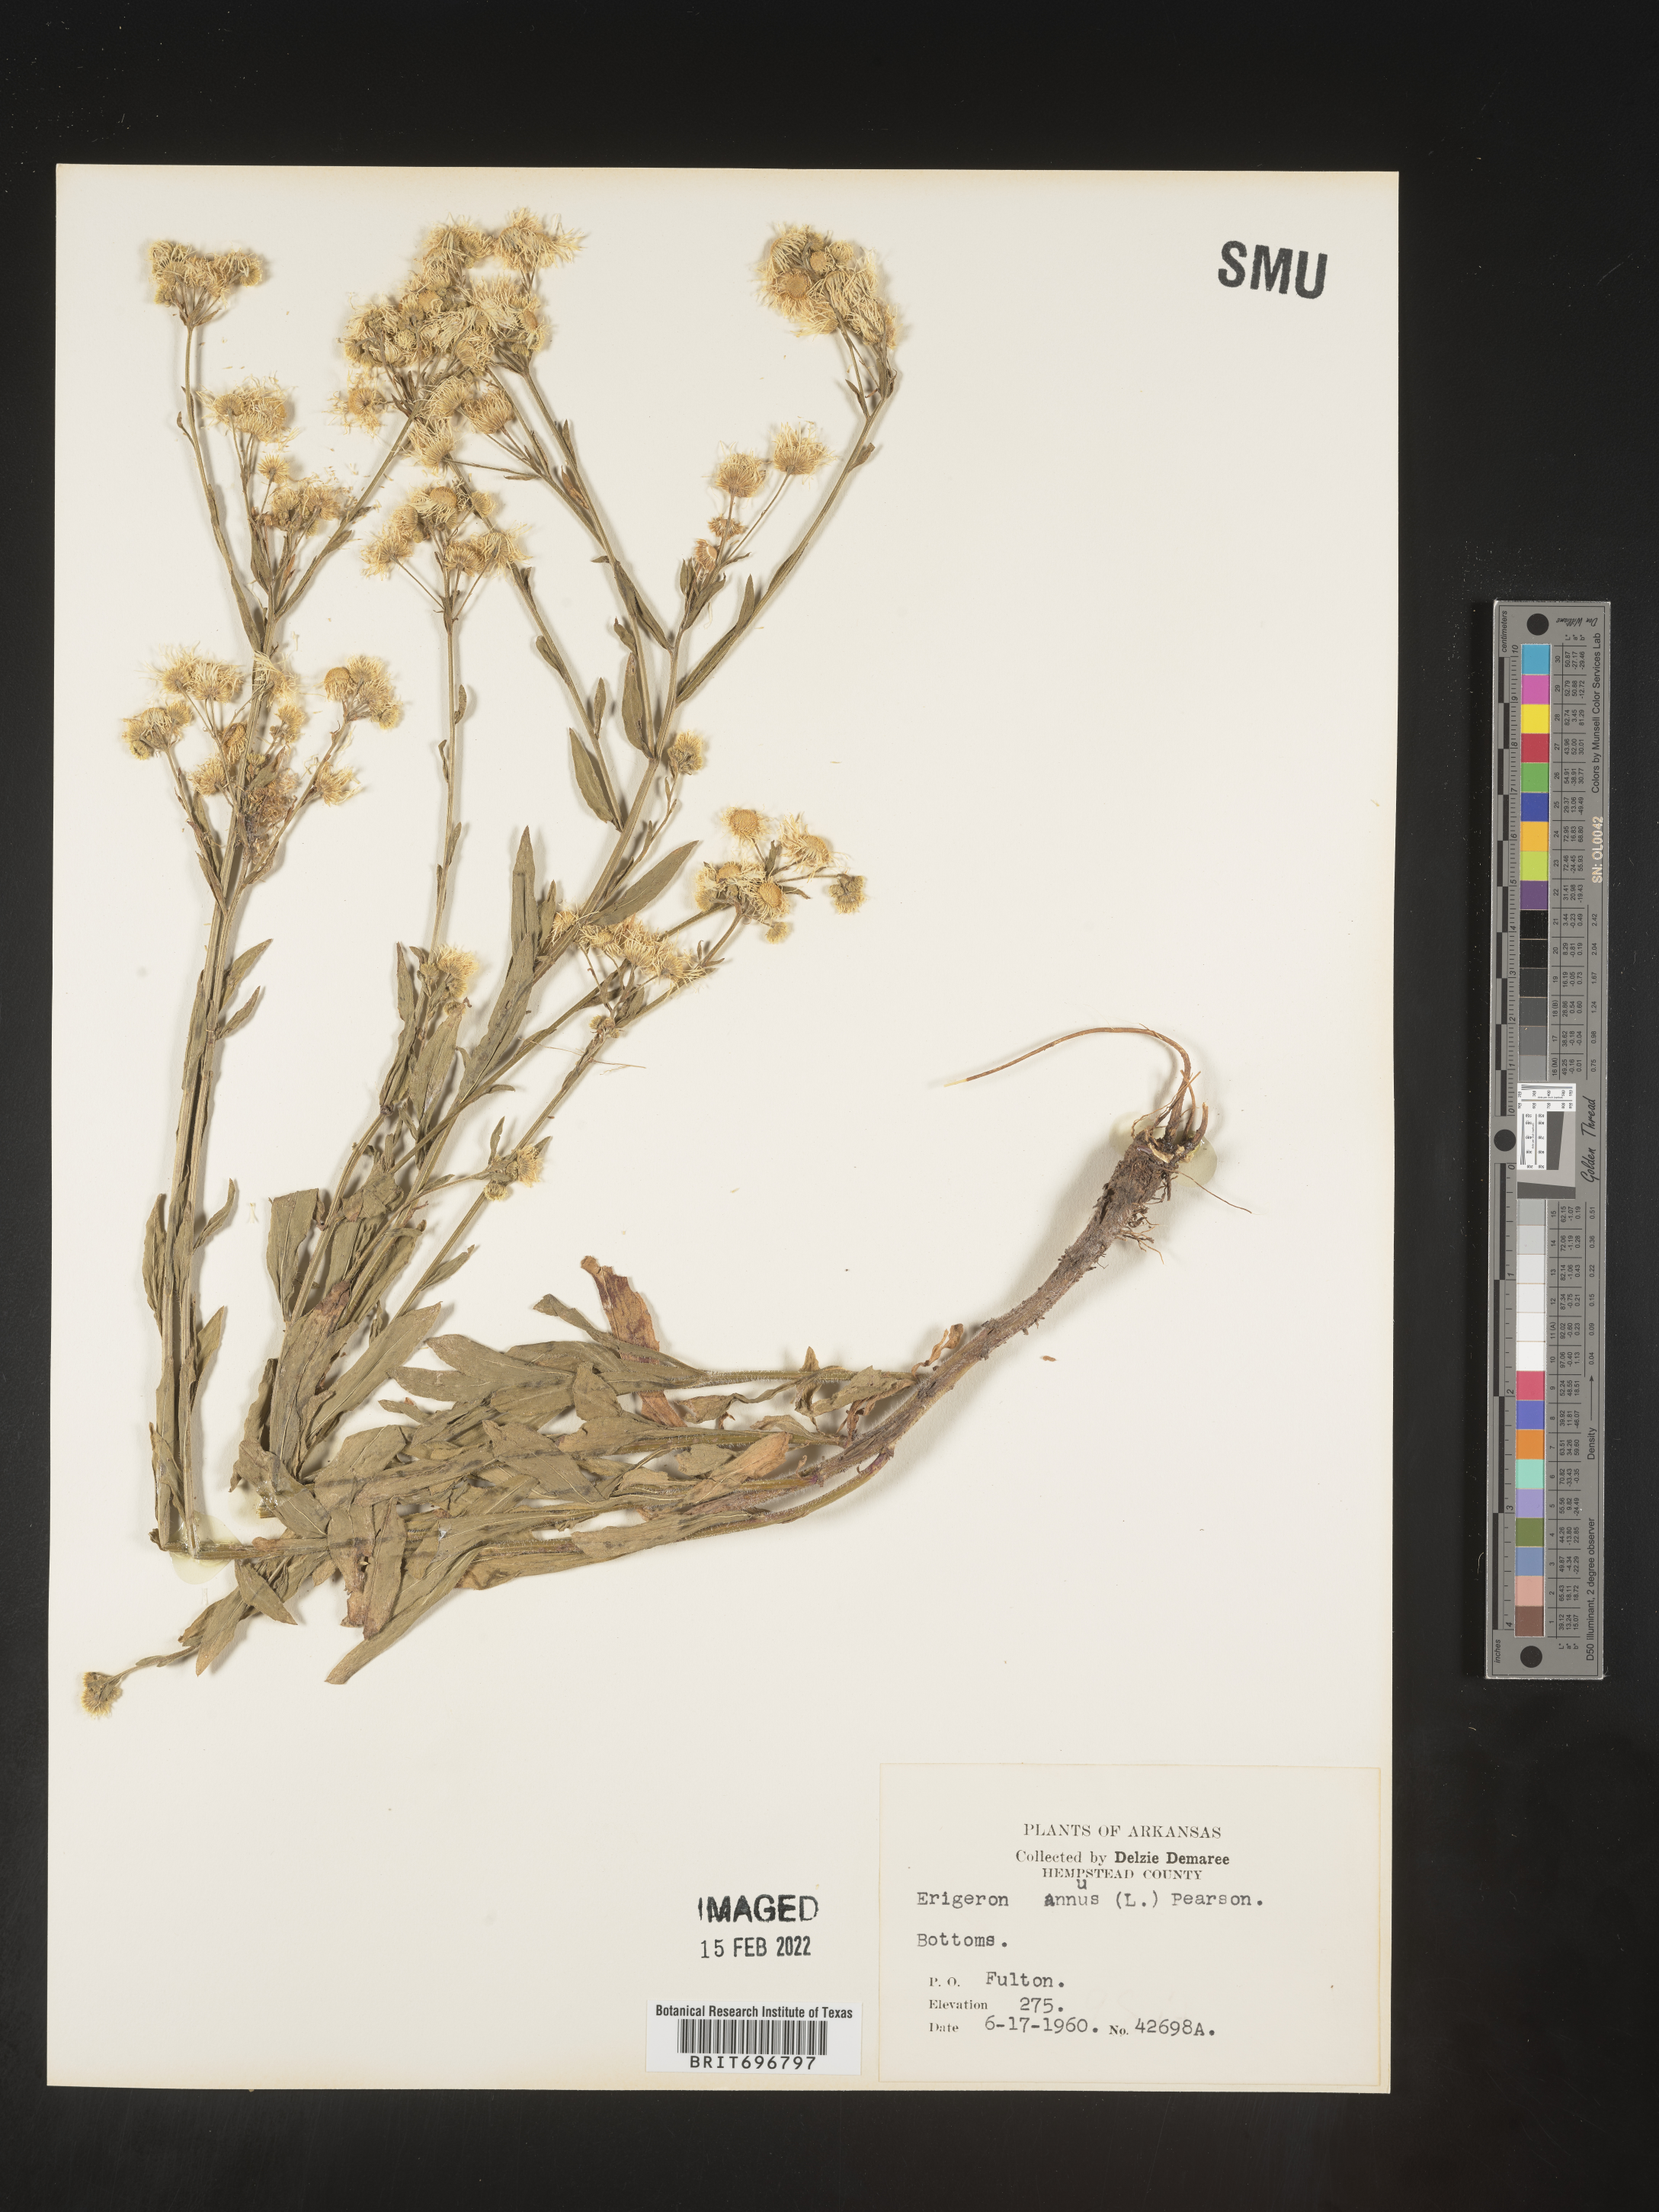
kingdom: Plantae
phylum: Tracheophyta
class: Magnoliopsida
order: Asterales
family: Asteraceae
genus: Erigeron
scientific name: Erigeron annuus
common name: Tall fleabane
